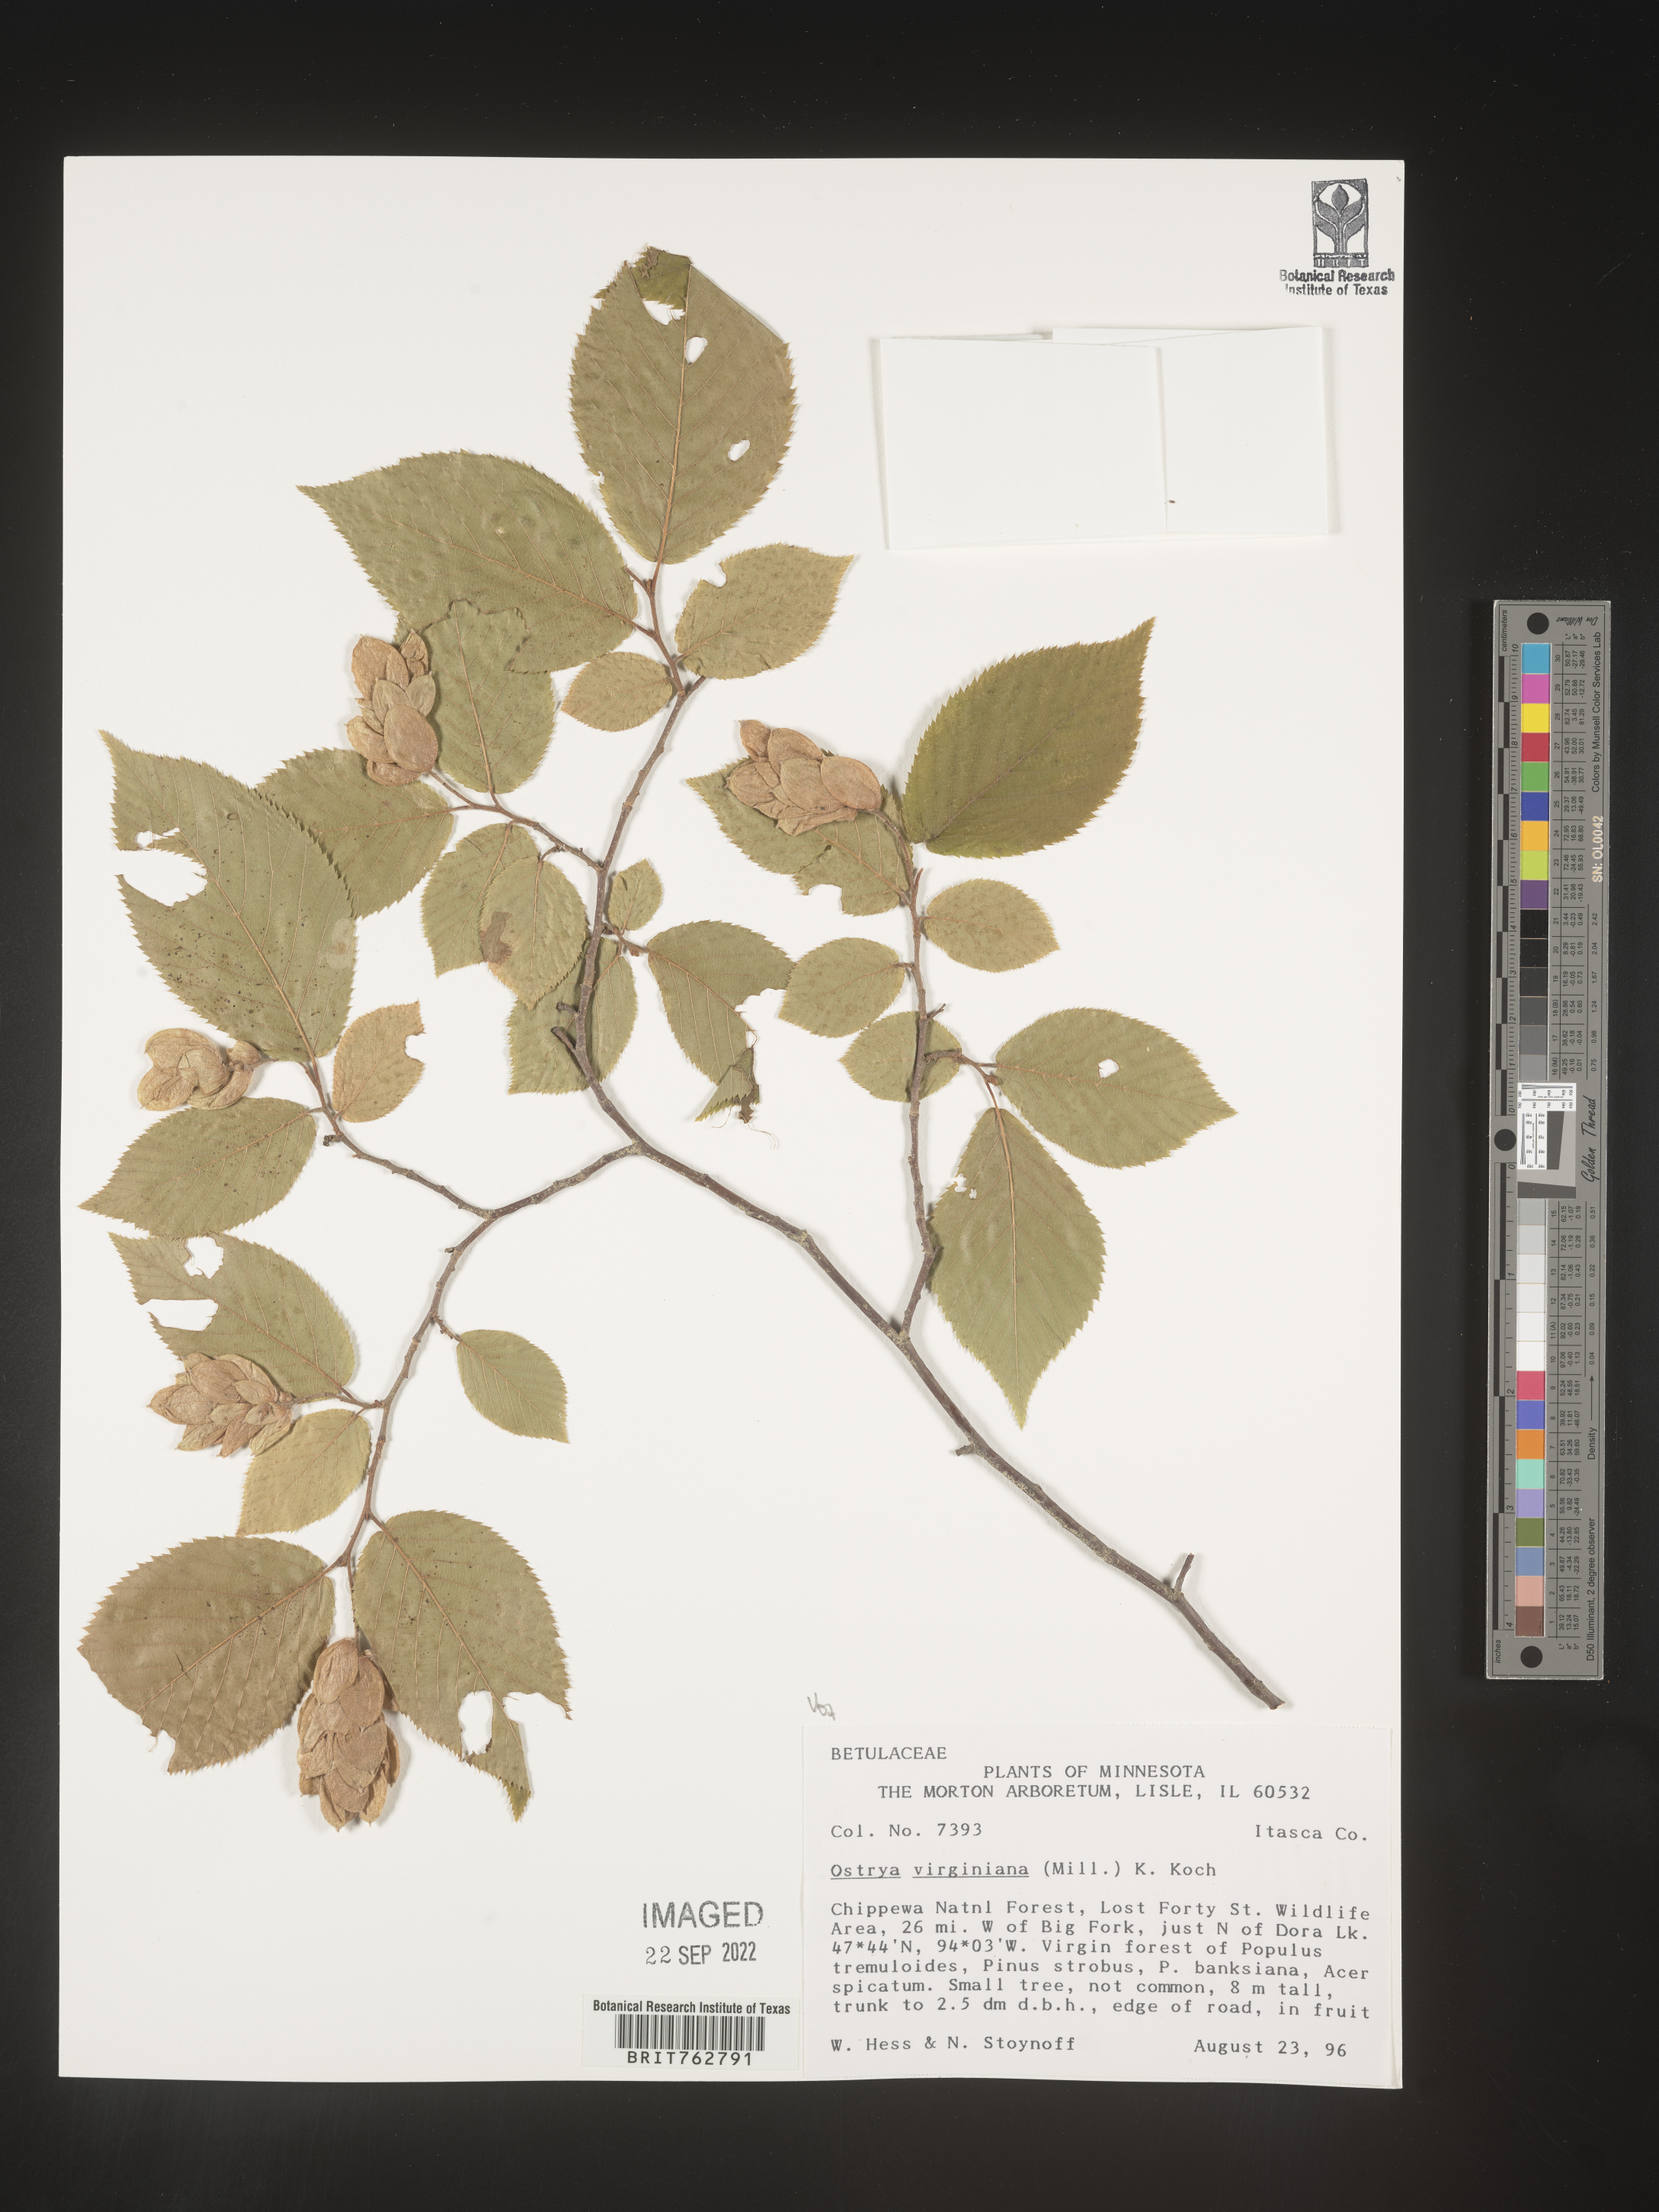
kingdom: Plantae
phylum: Tracheophyta
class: Magnoliopsida
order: Fagales
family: Betulaceae
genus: Ostrya
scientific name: Ostrya virginiana
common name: Ironwood
